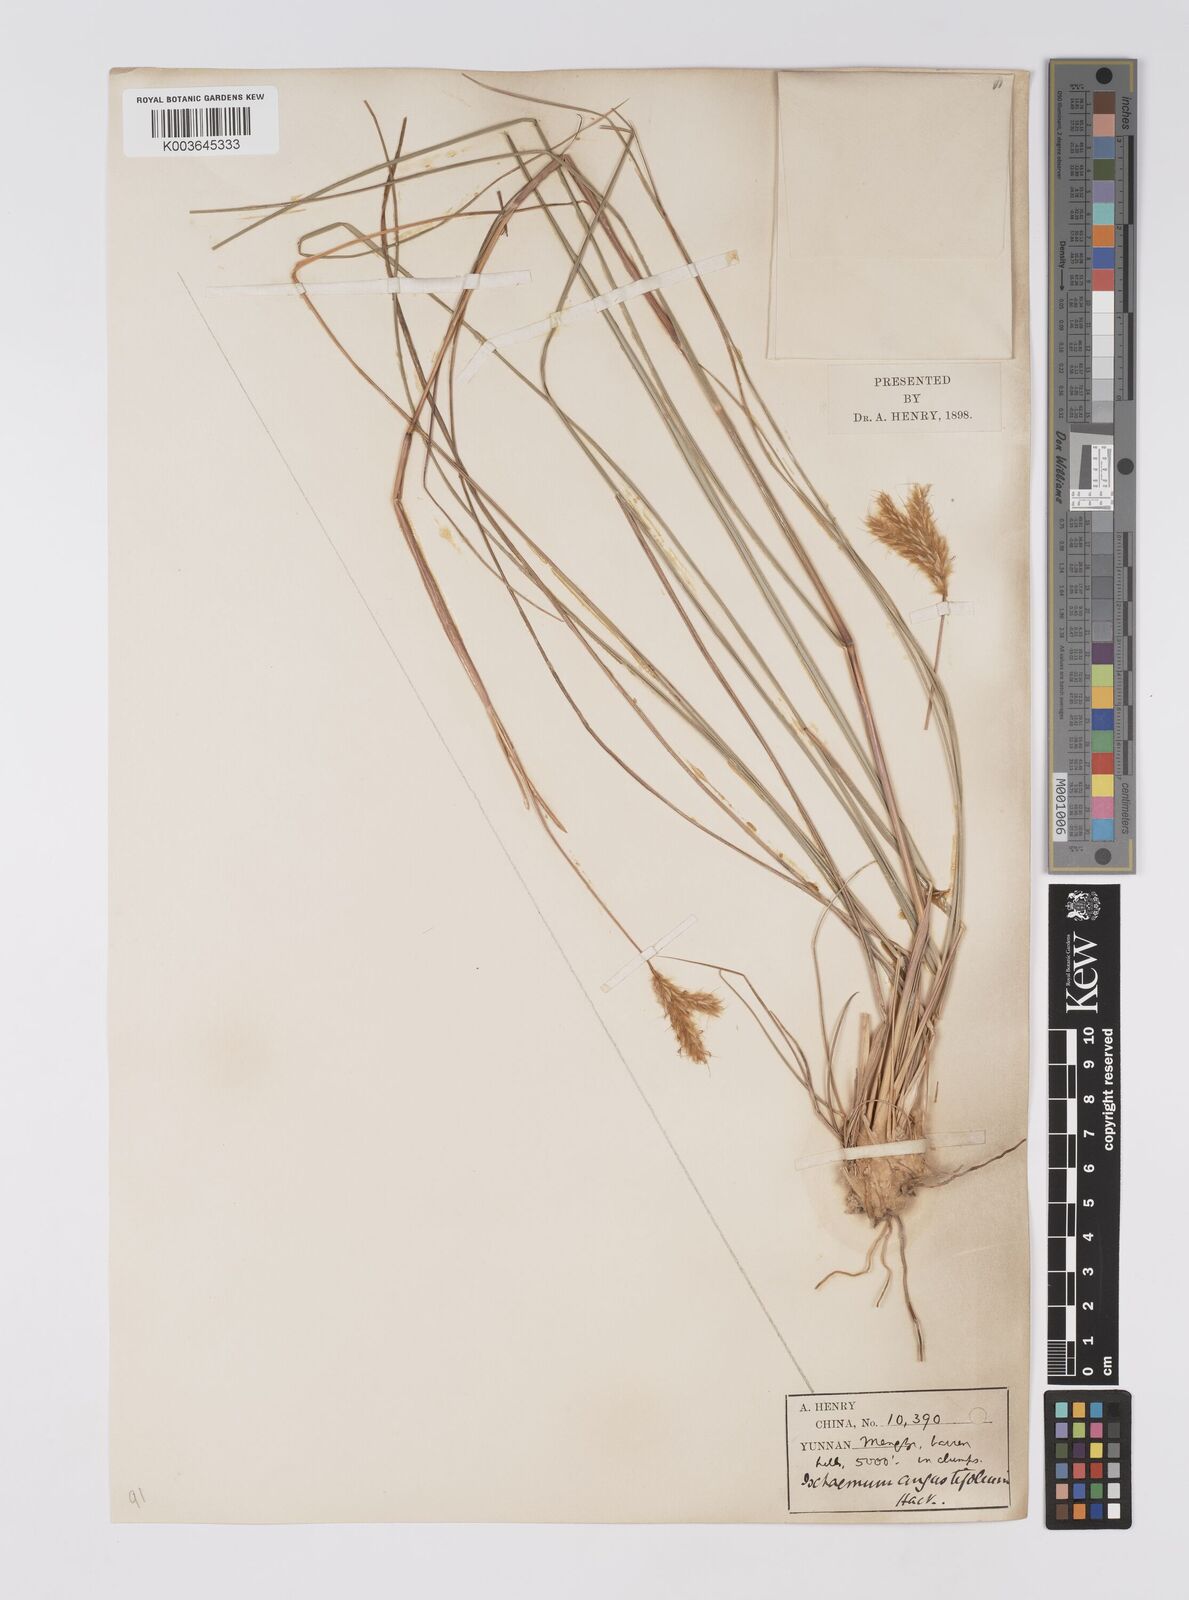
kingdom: Plantae
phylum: Tracheophyta
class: Liliopsida
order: Poales
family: Poaceae
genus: Eulaliopsis
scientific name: Eulaliopsis binata
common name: Baib grass
